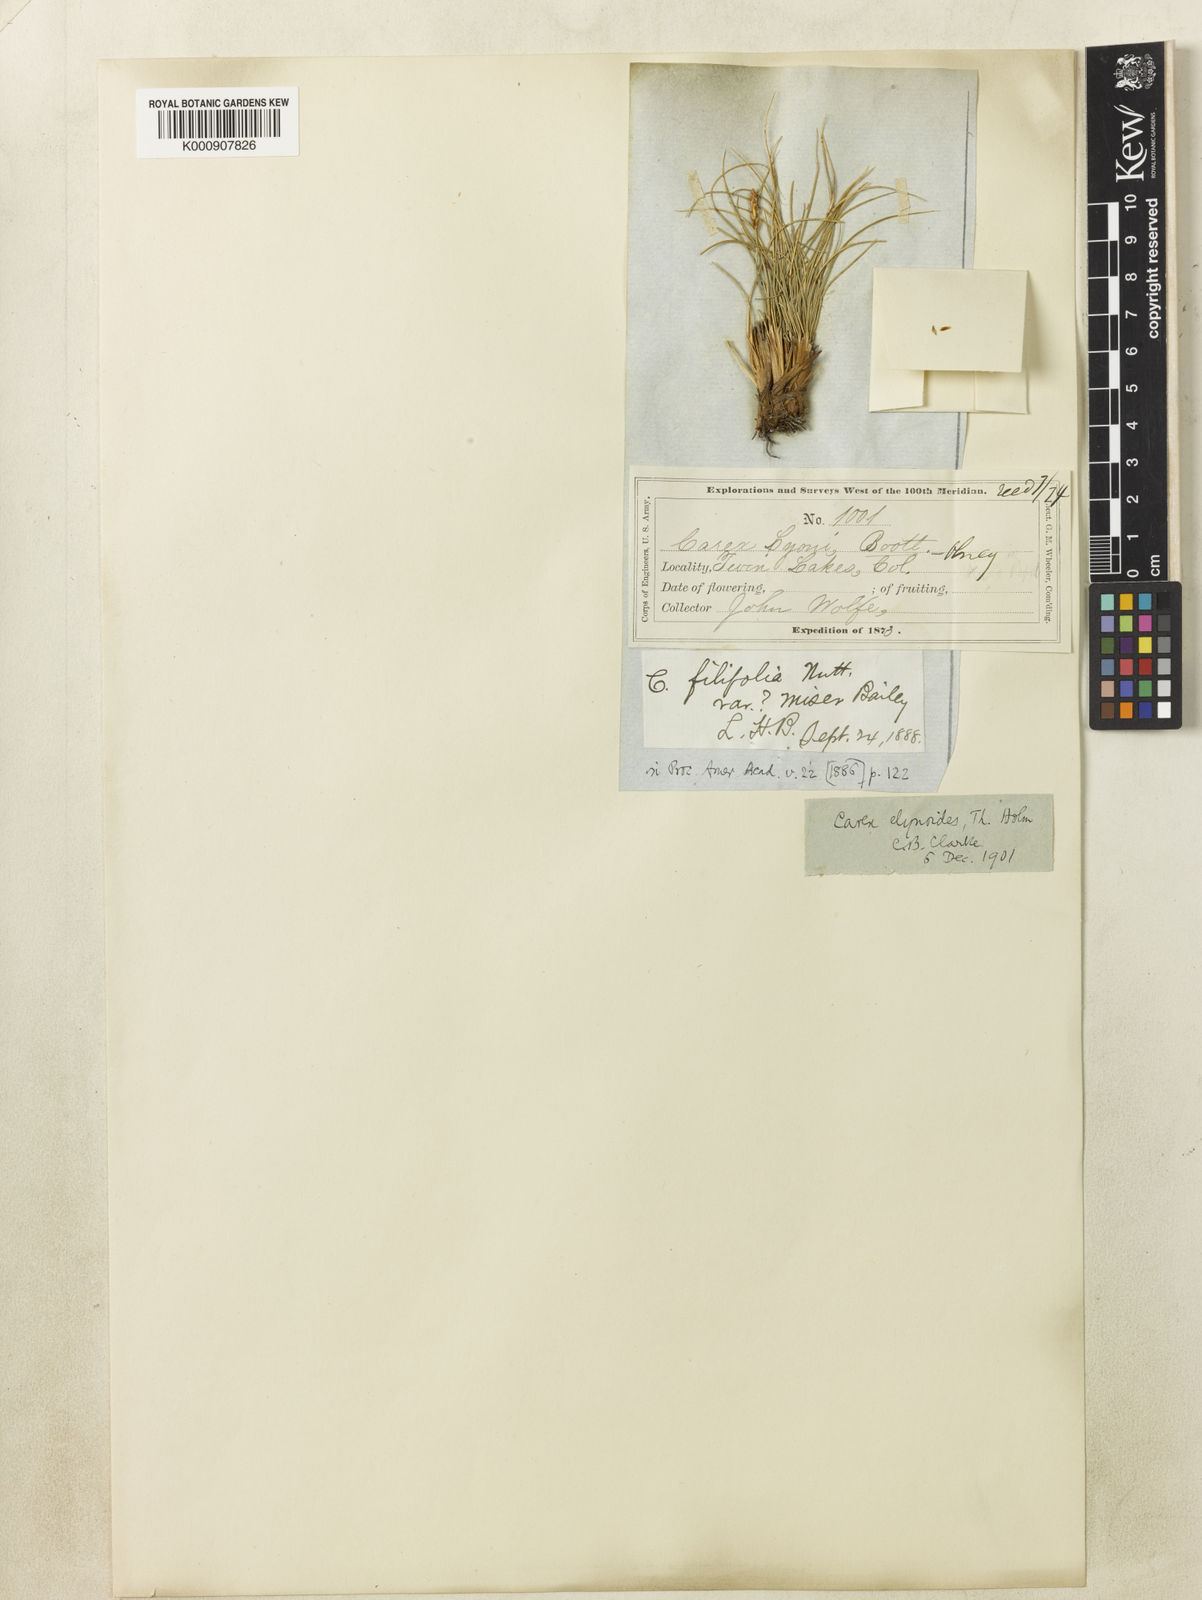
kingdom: Plantae
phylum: Tracheophyta
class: Liliopsida
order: Poales
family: Cyperaceae
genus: Carex
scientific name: Carex elynoides
